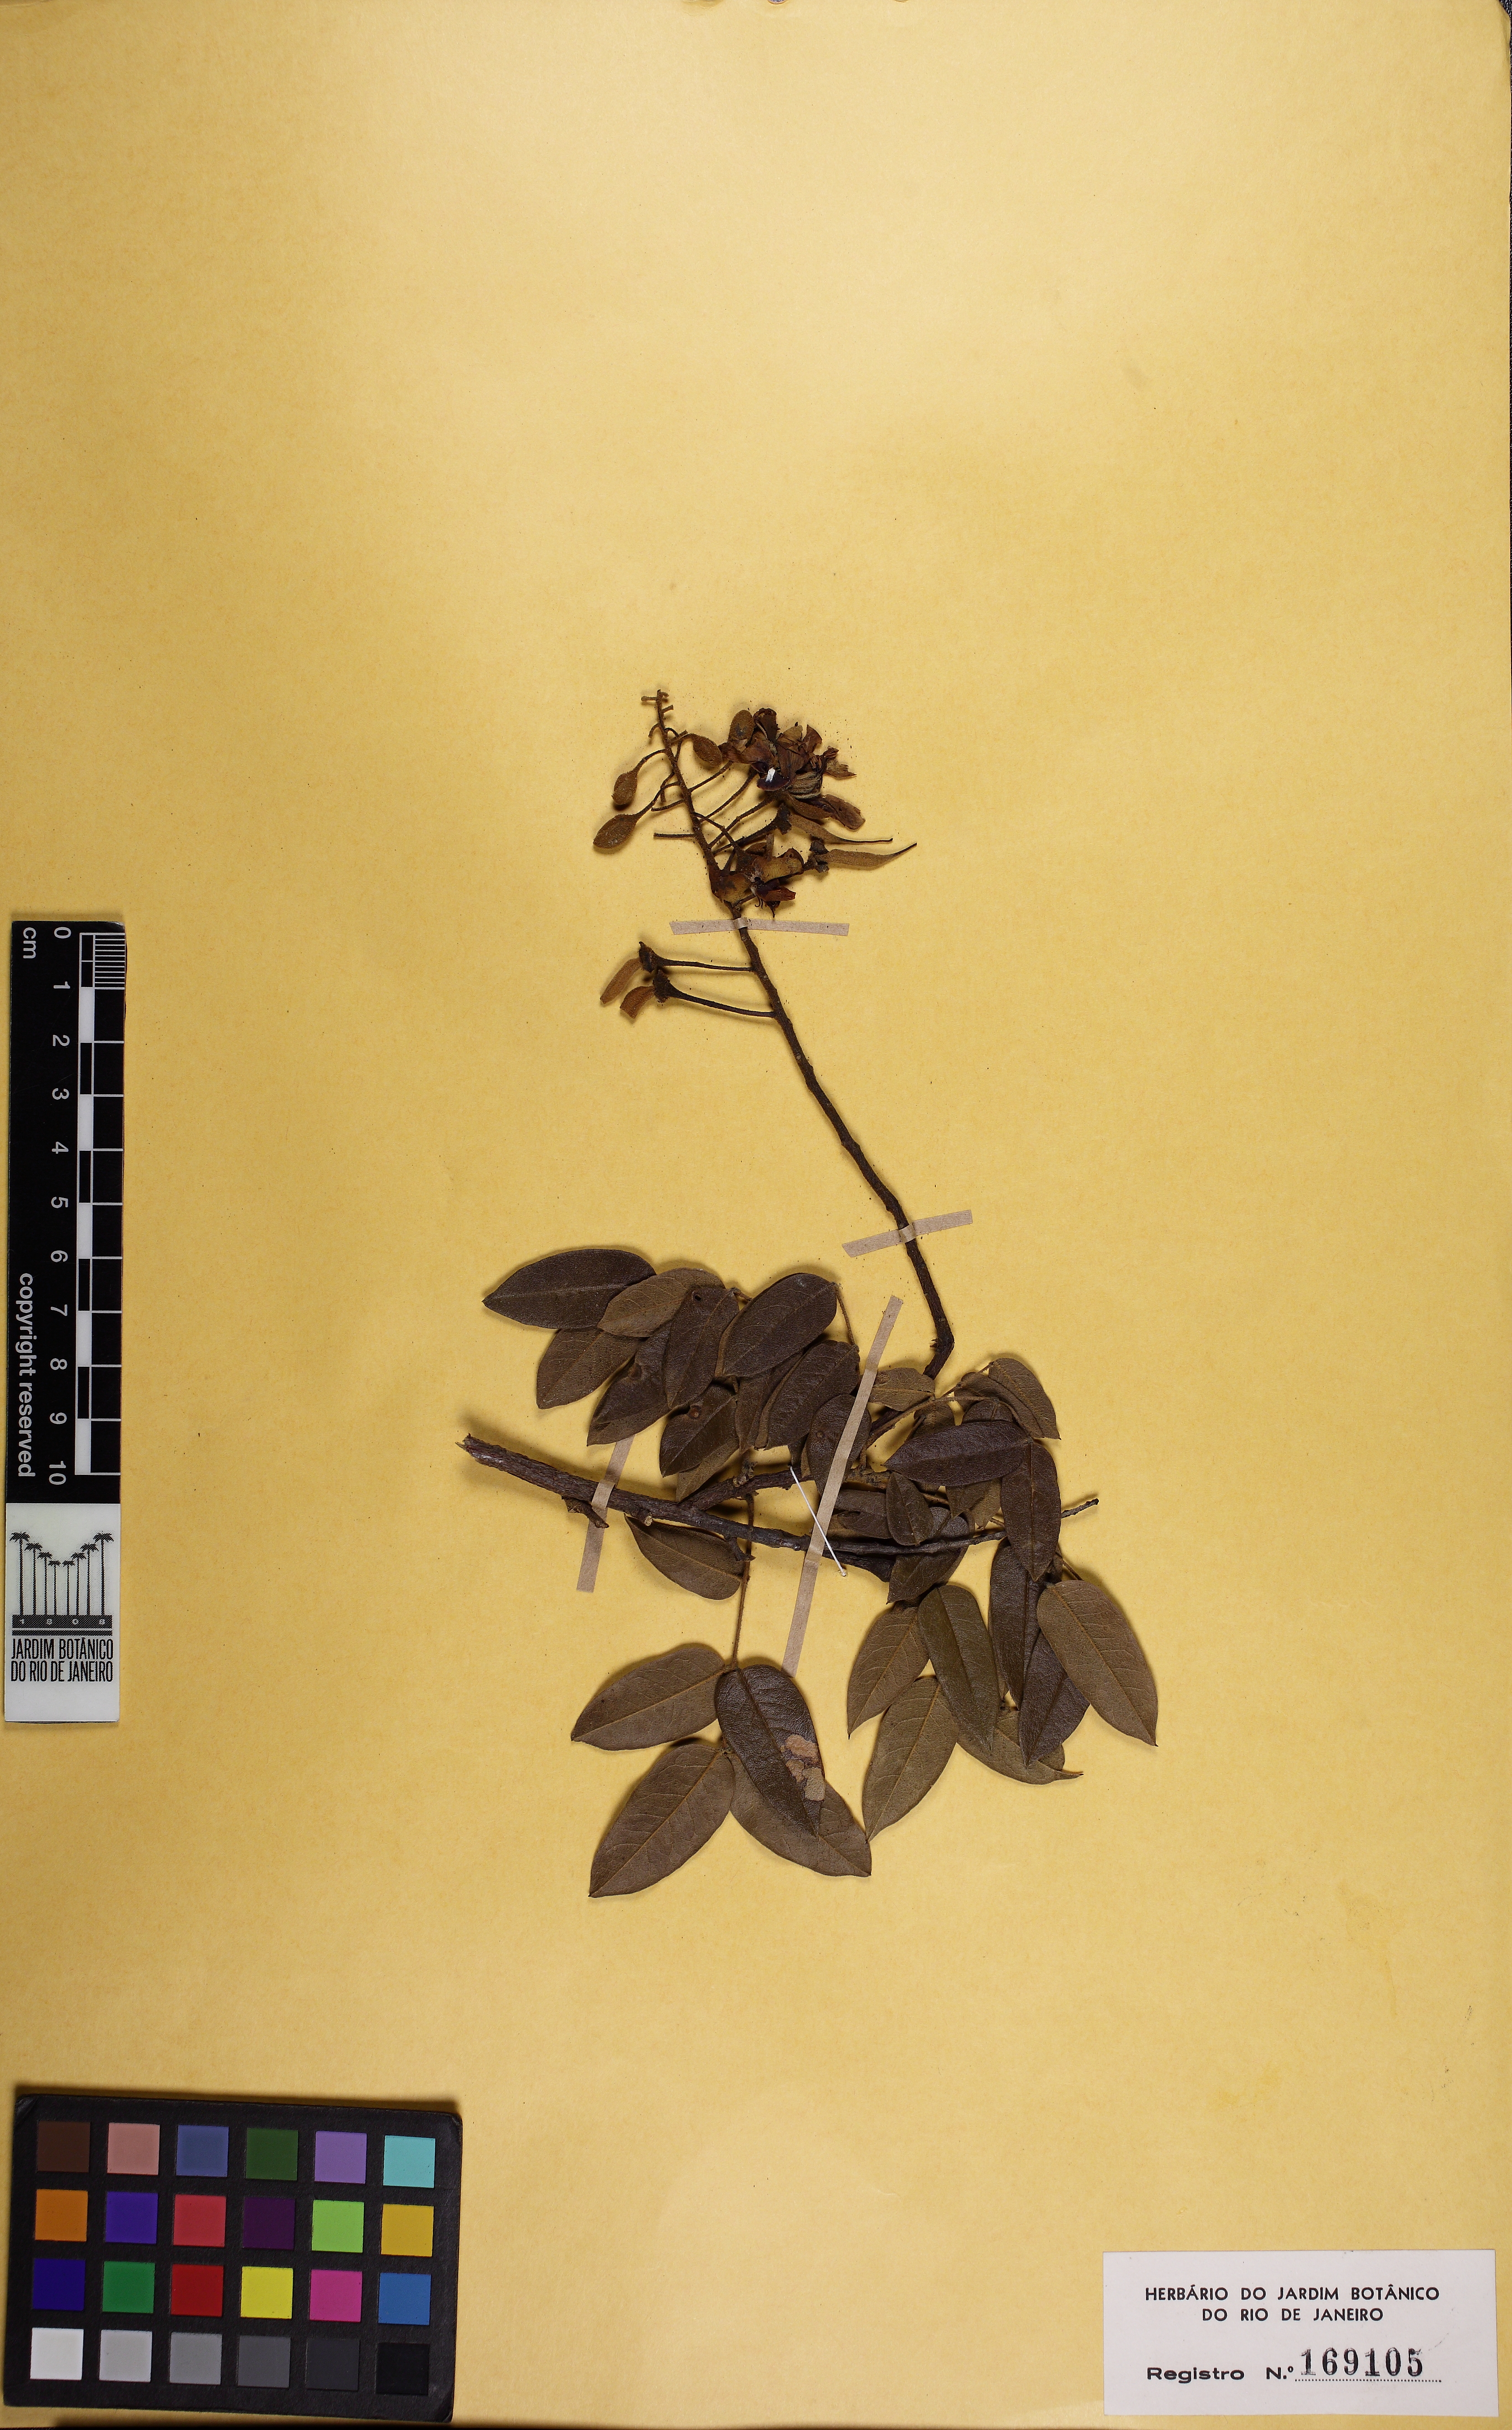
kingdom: Plantae
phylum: Tracheophyta
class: Magnoliopsida
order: Fabales
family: Fabaceae
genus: Cenostigma
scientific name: Cenostigma
